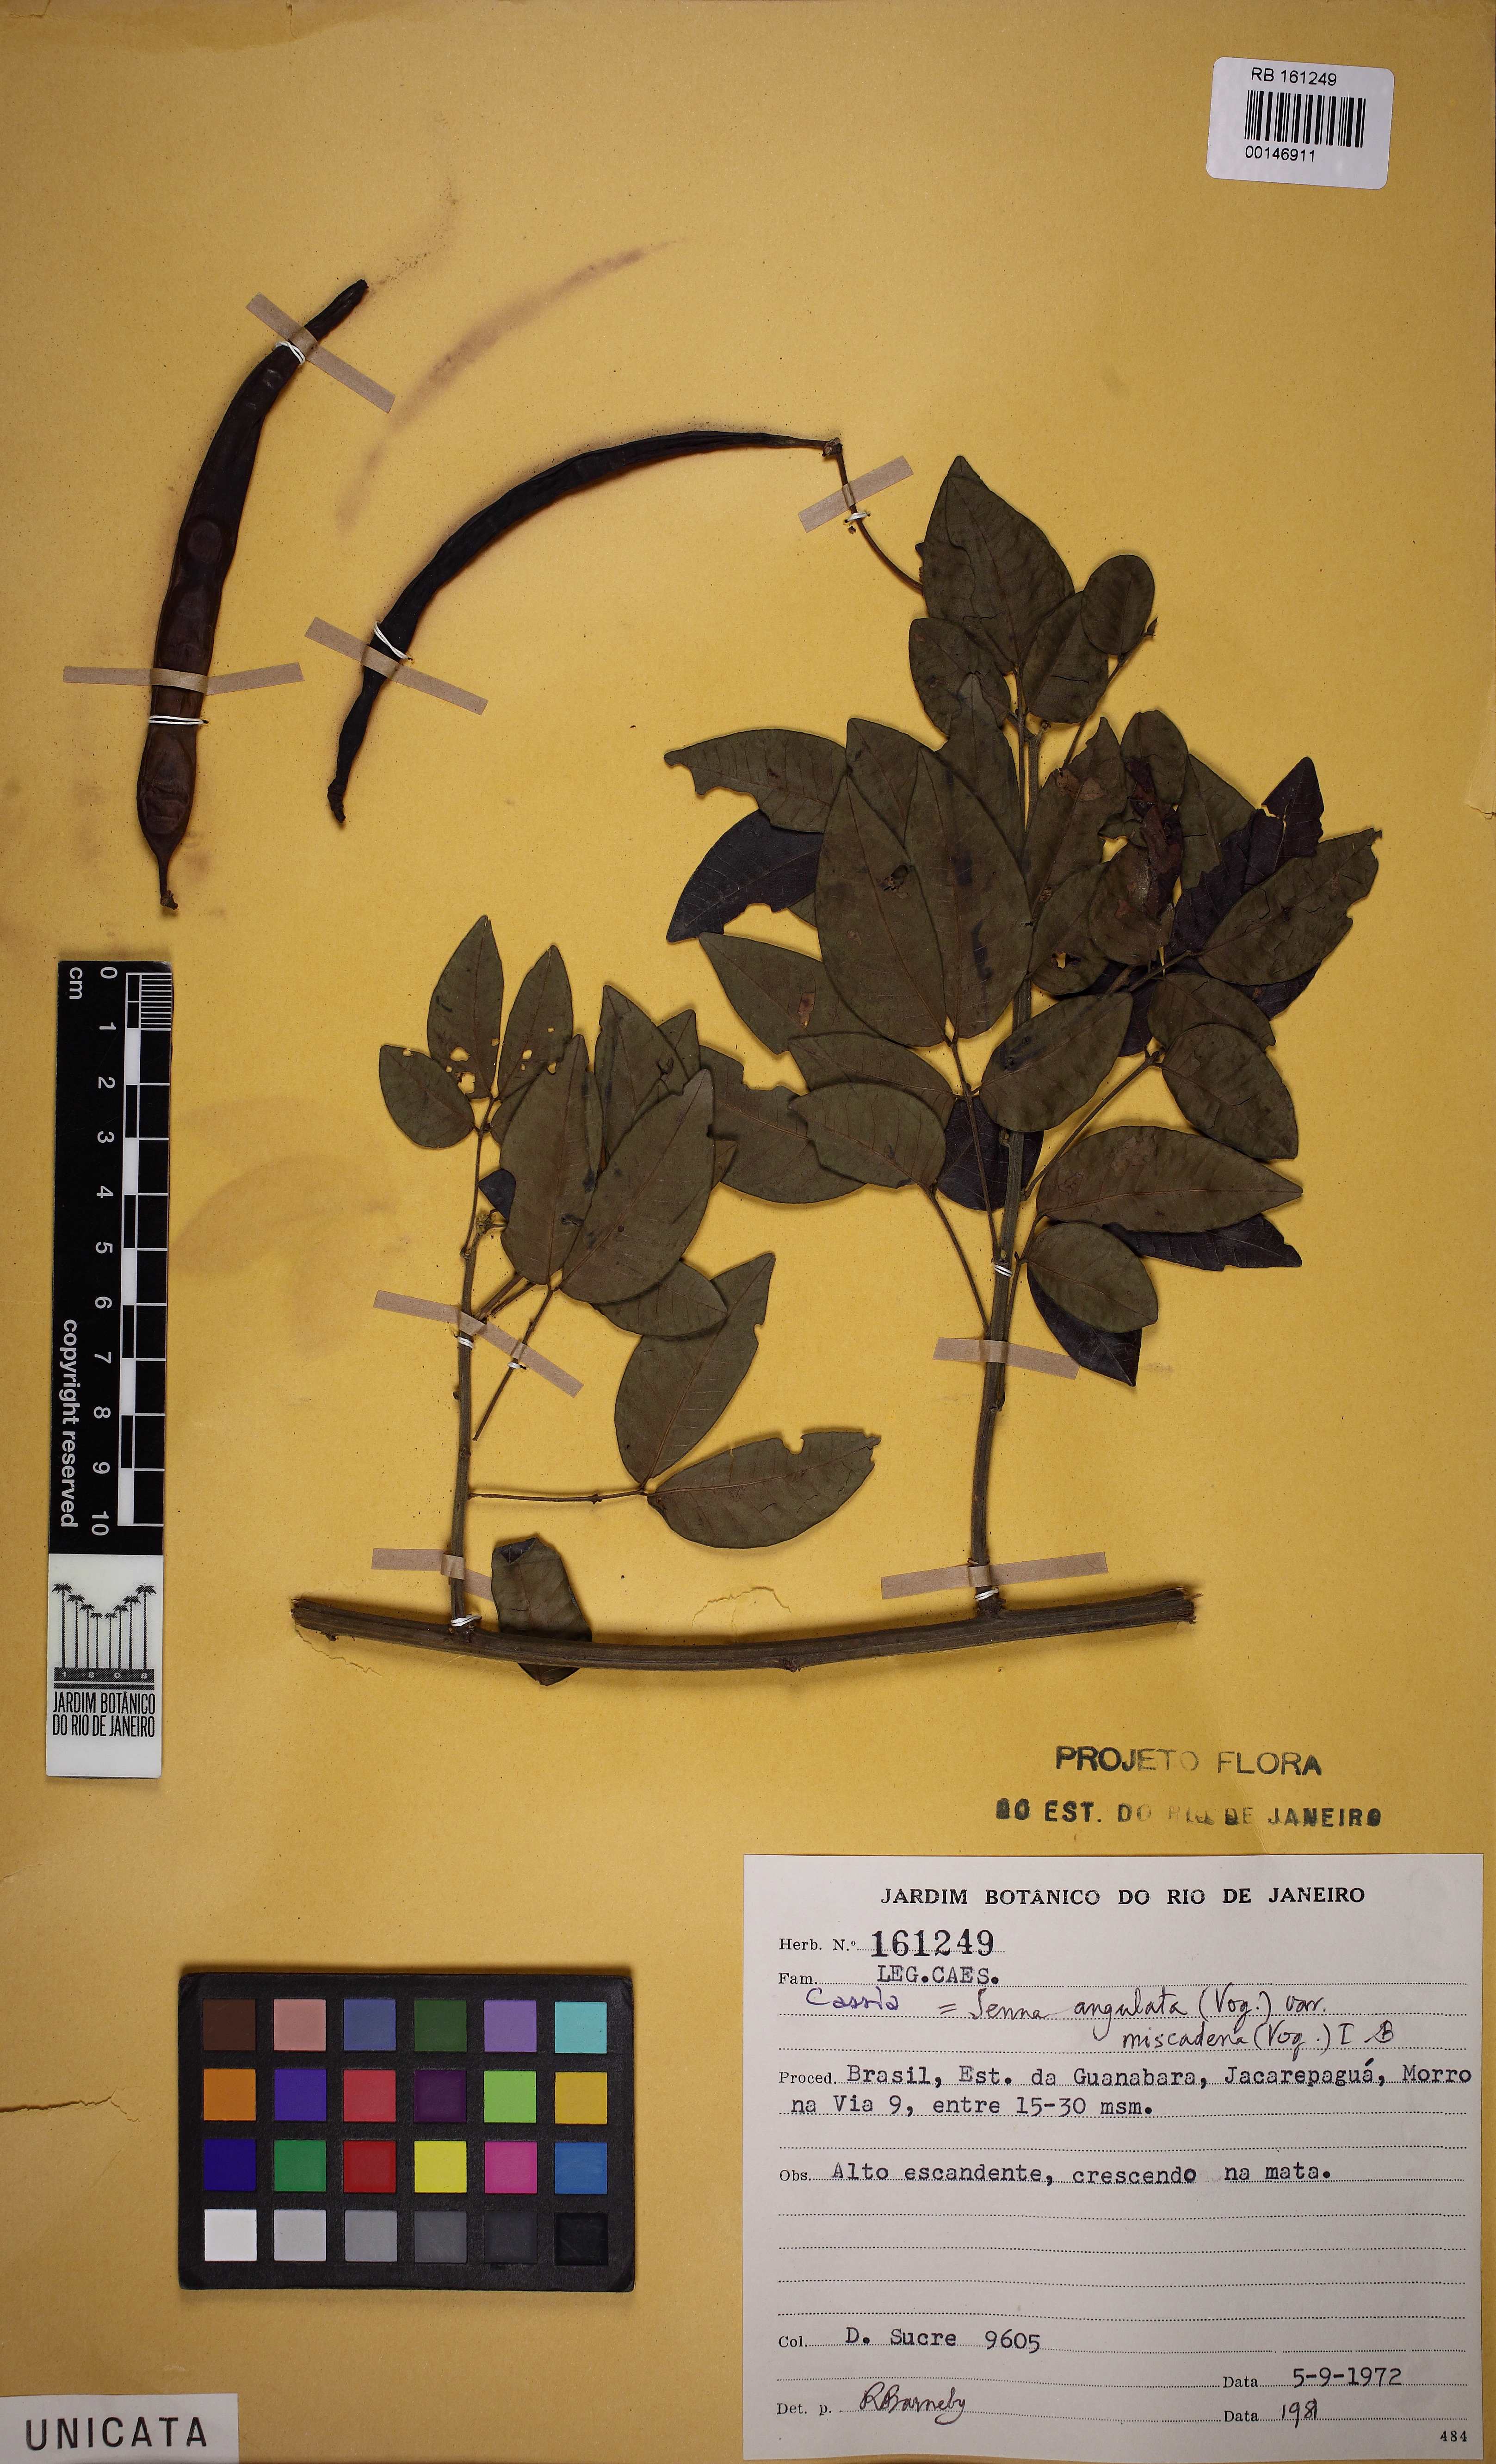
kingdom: Plantae
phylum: Tracheophyta
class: Magnoliopsida
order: Fabales
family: Fabaceae
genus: Senna
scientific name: Senna angulata
